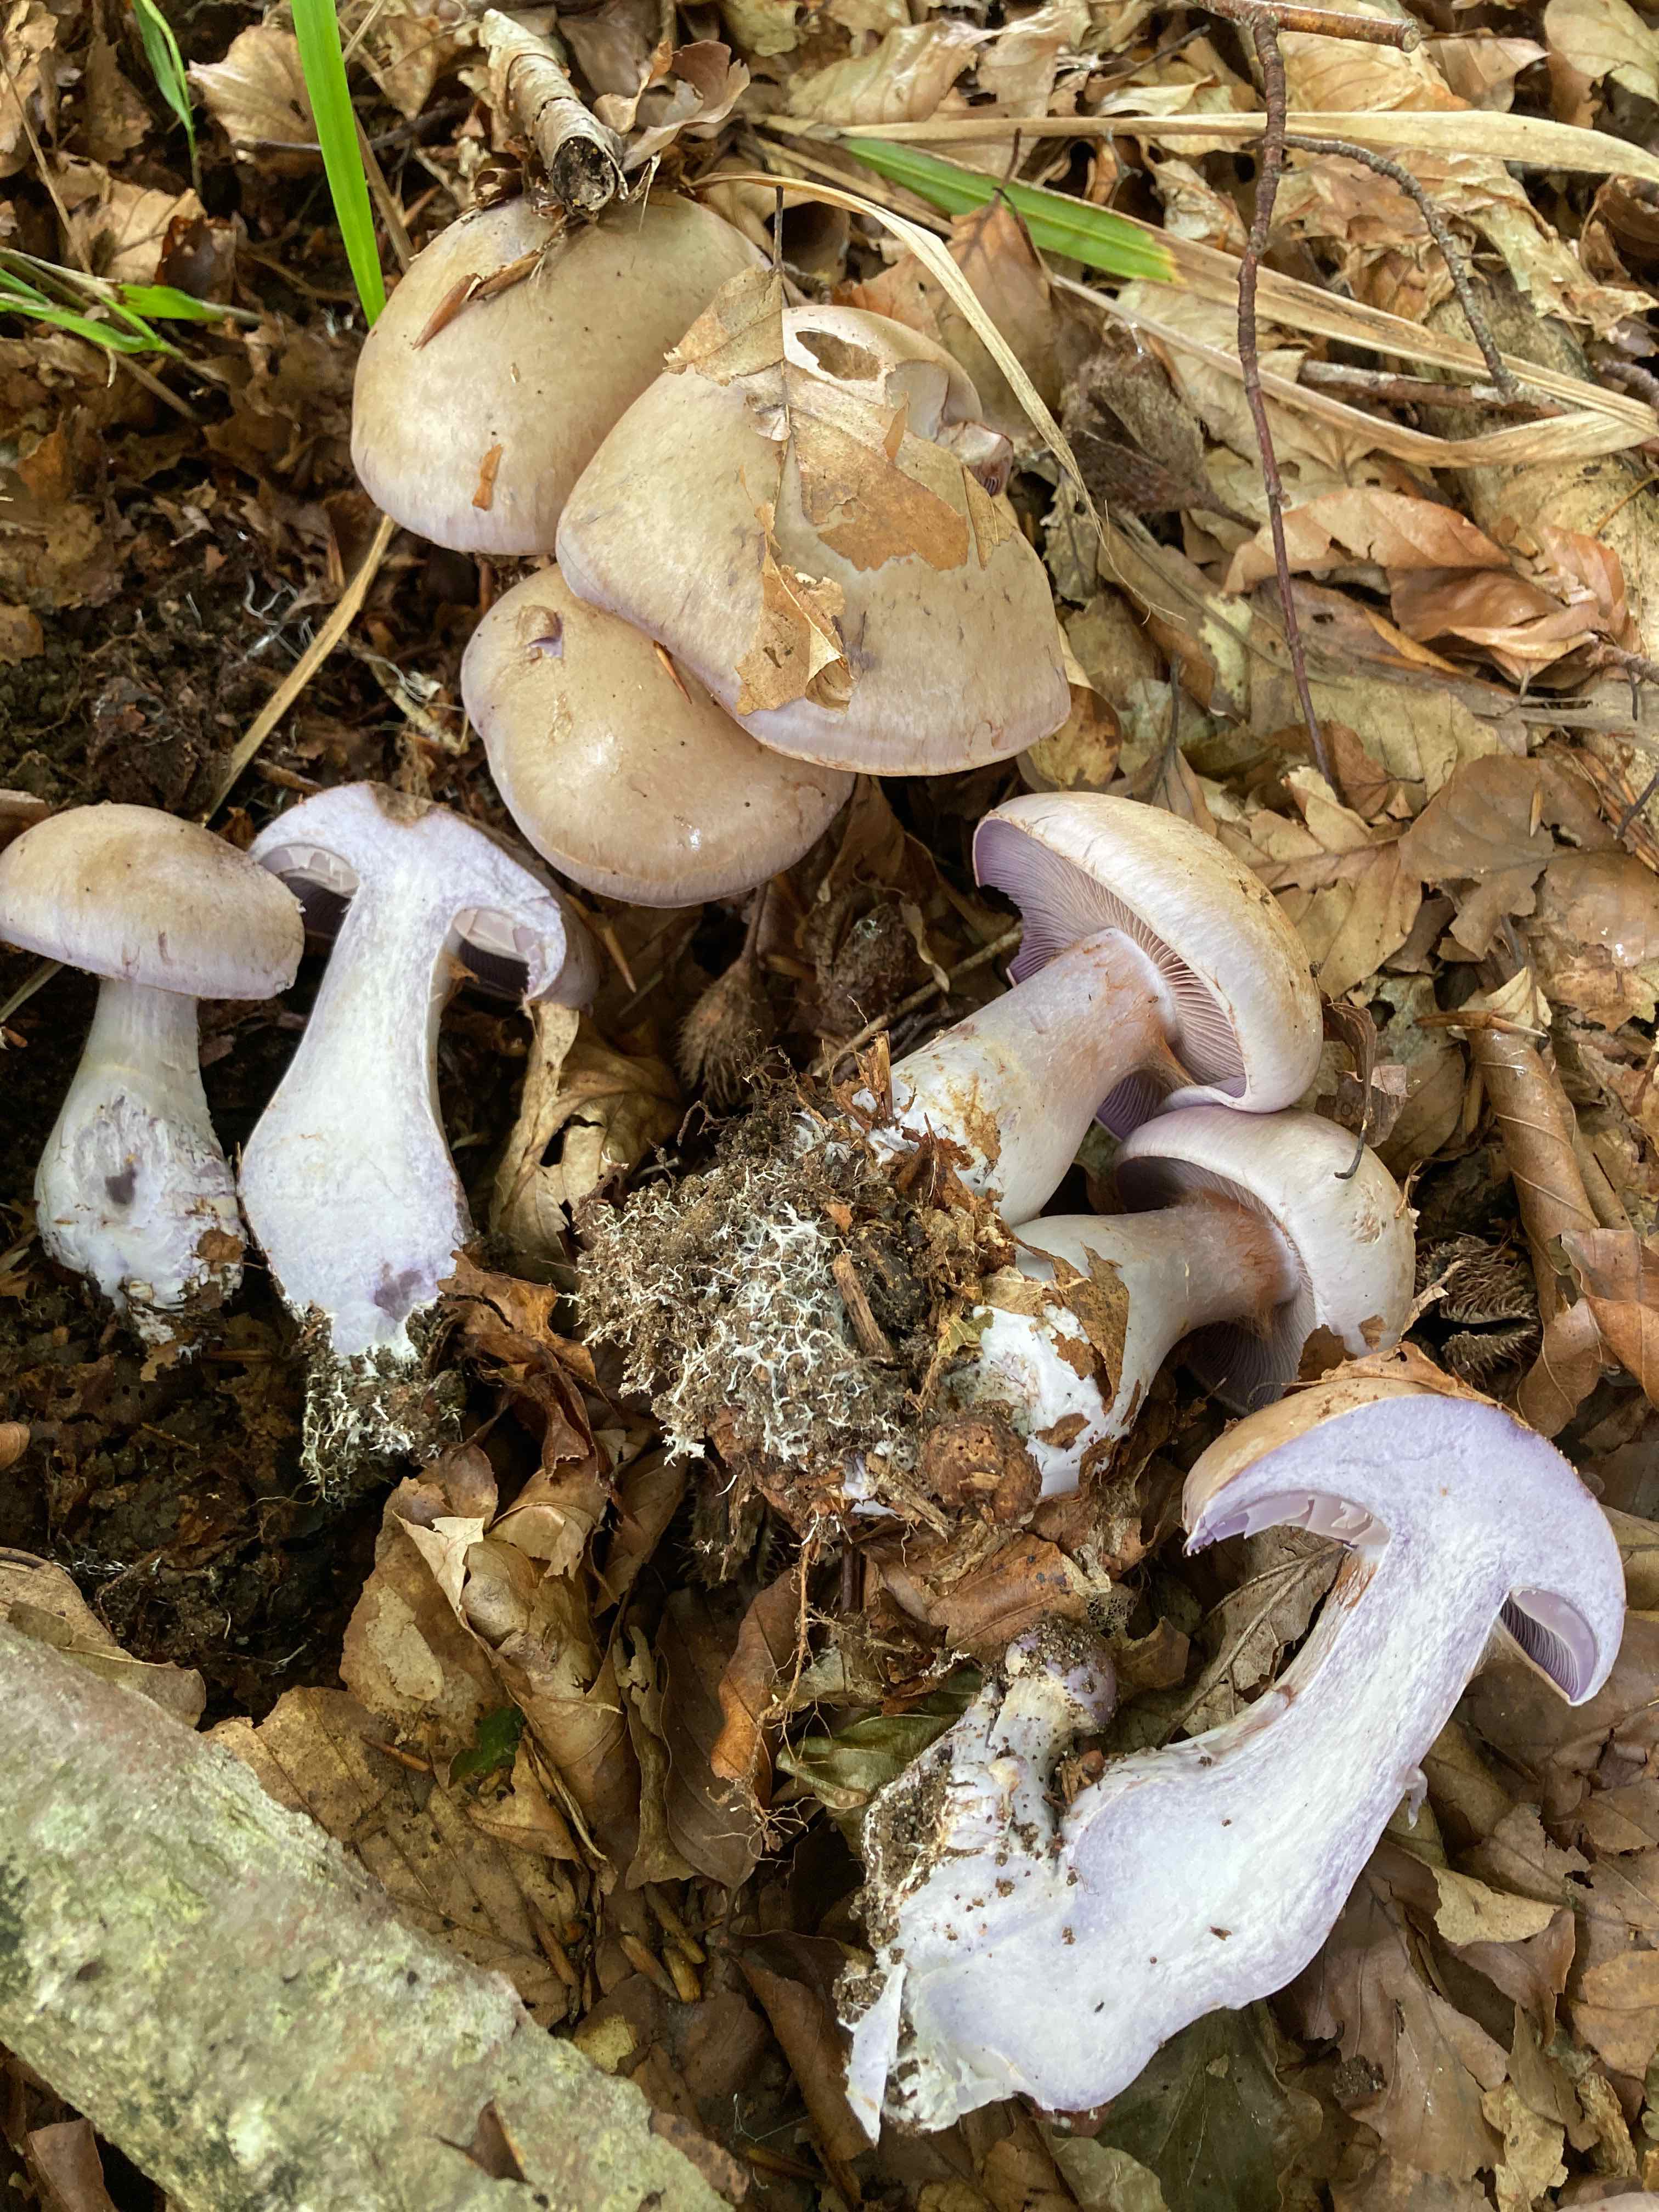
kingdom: Fungi
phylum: Basidiomycota
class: Agaricomycetes
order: Agaricales
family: Cortinariaceae
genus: Cortinarius
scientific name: Cortinarius largus
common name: violetrandet slørhat
